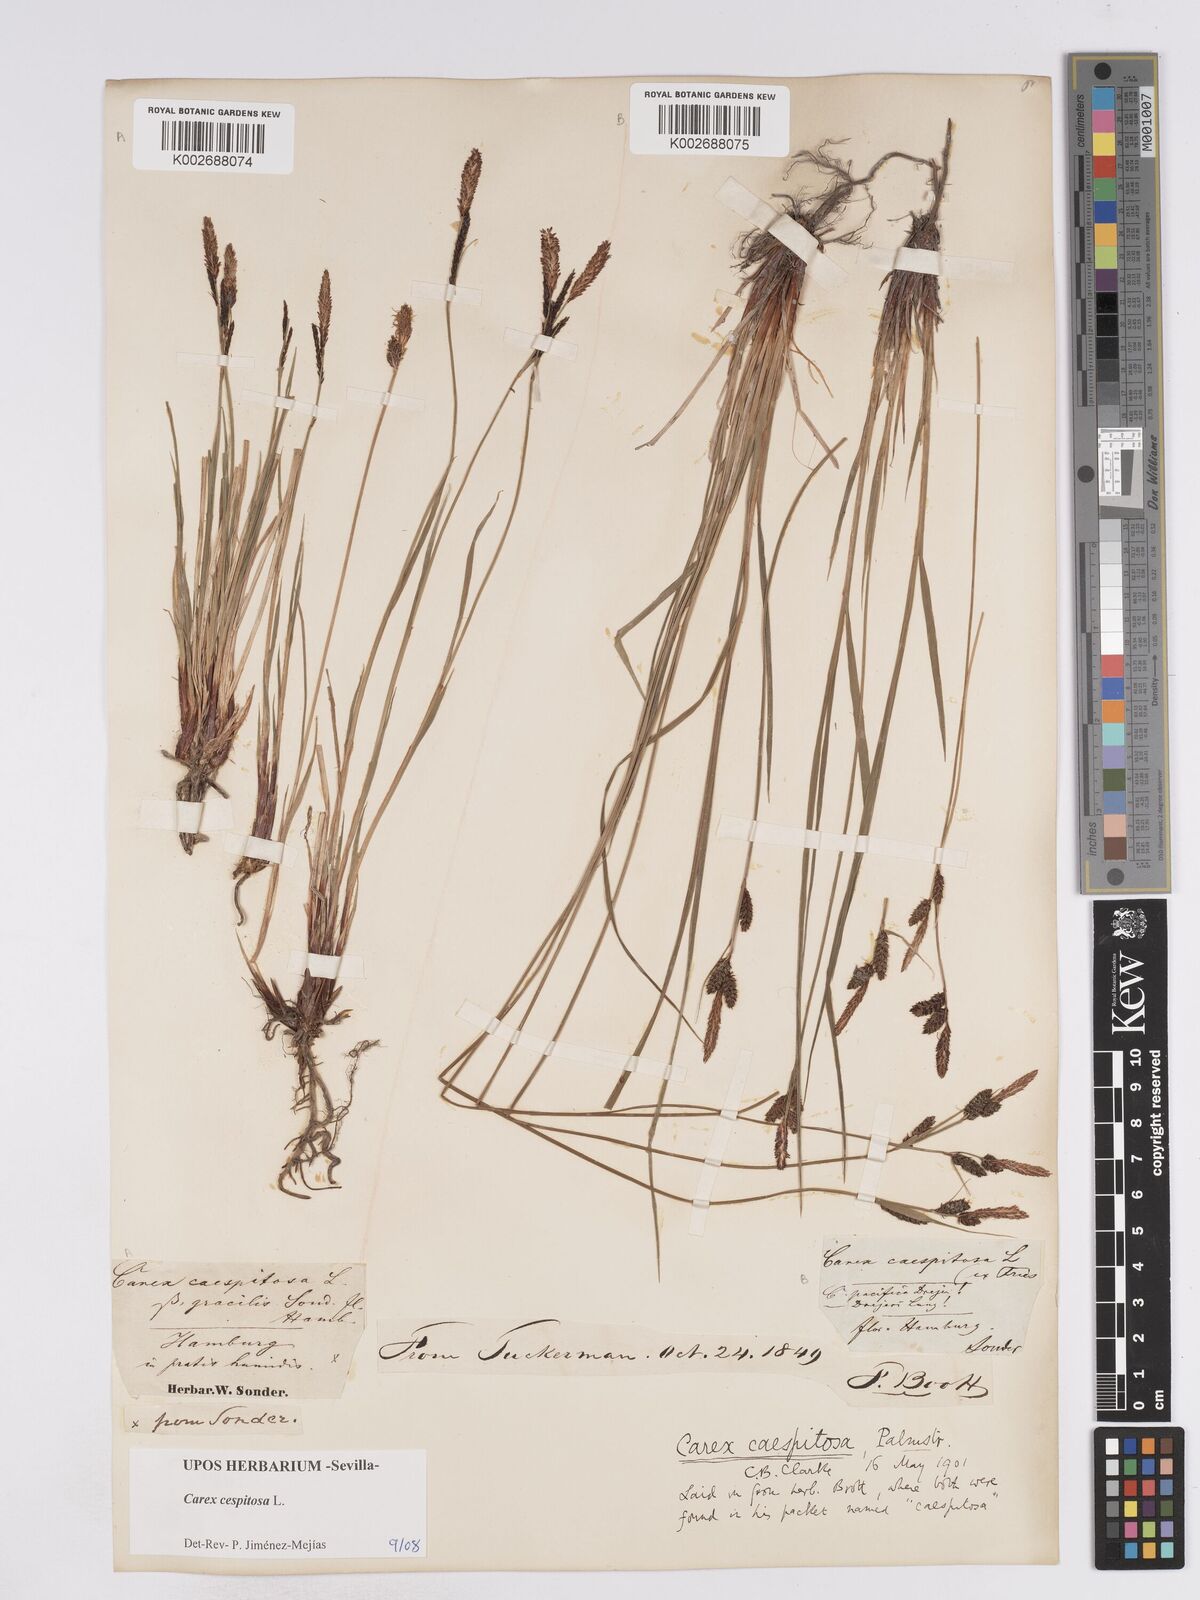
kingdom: Plantae
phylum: Tracheophyta
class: Liliopsida
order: Poales
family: Cyperaceae
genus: Carex
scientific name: Carex
